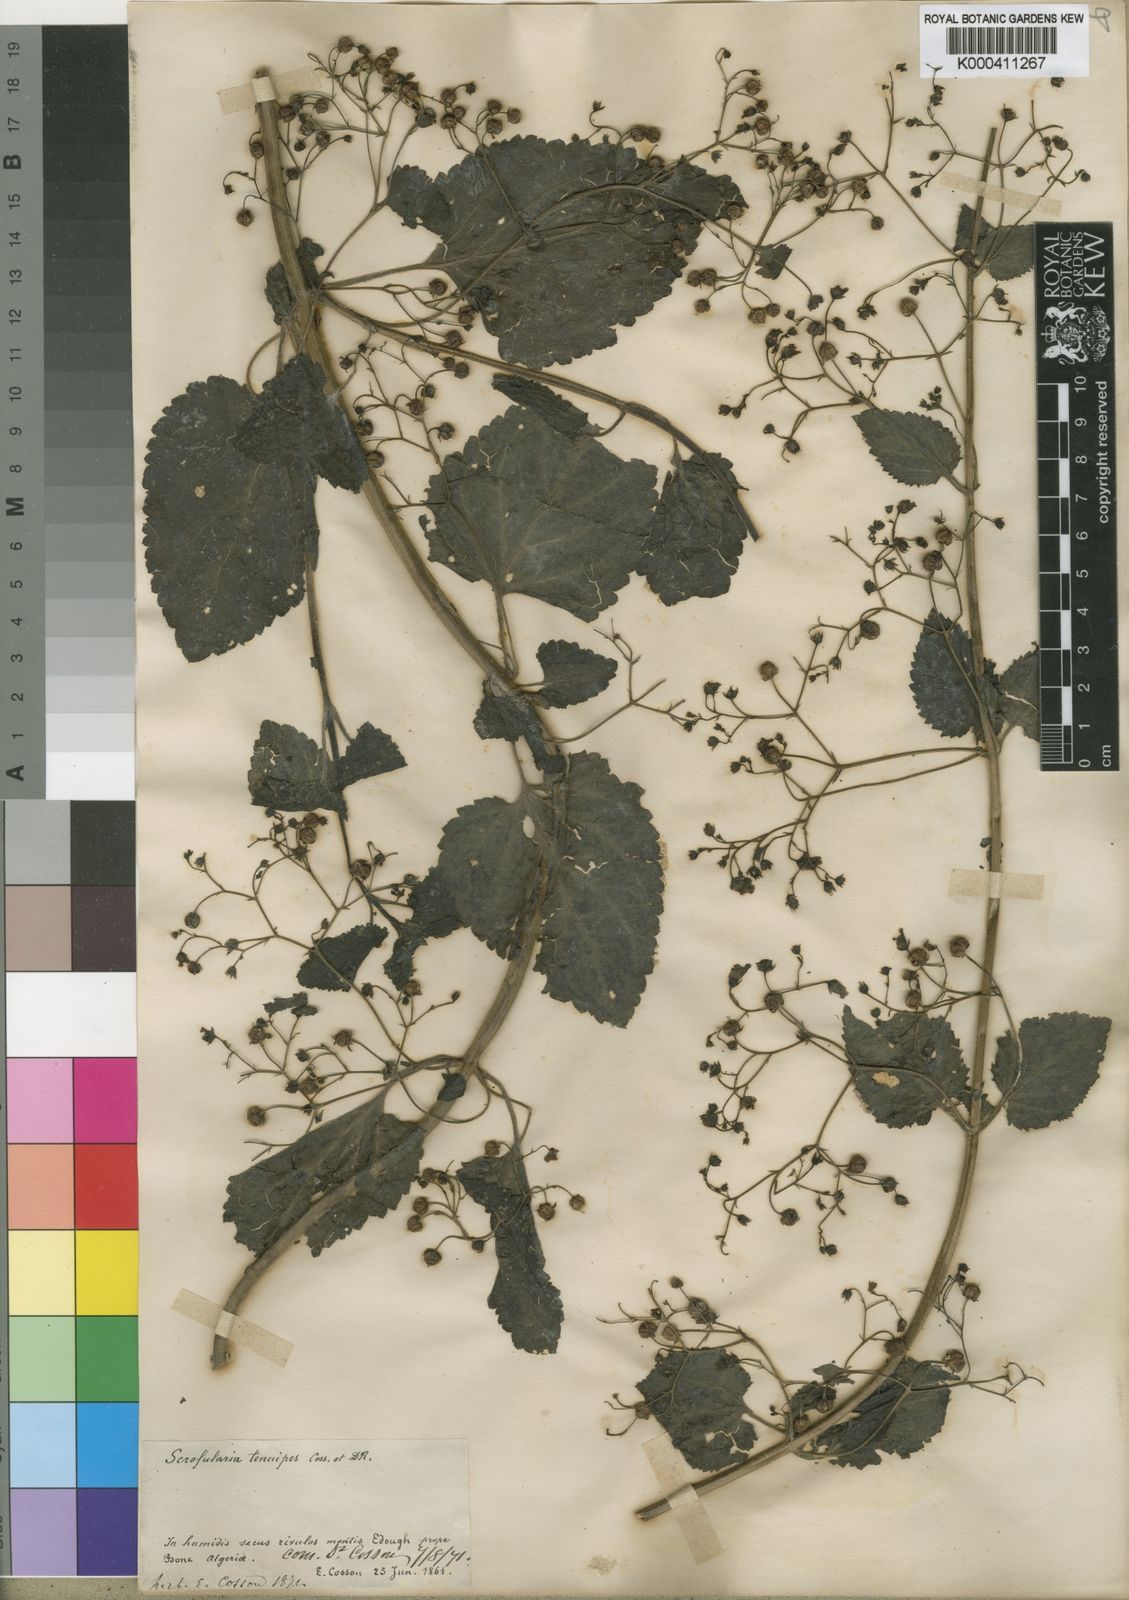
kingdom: Plantae
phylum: Tracheophyta
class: Magnoliopsida
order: Lamiales
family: Scrophulariaceae
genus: Scrophularia
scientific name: Scrophularia tenuipes
